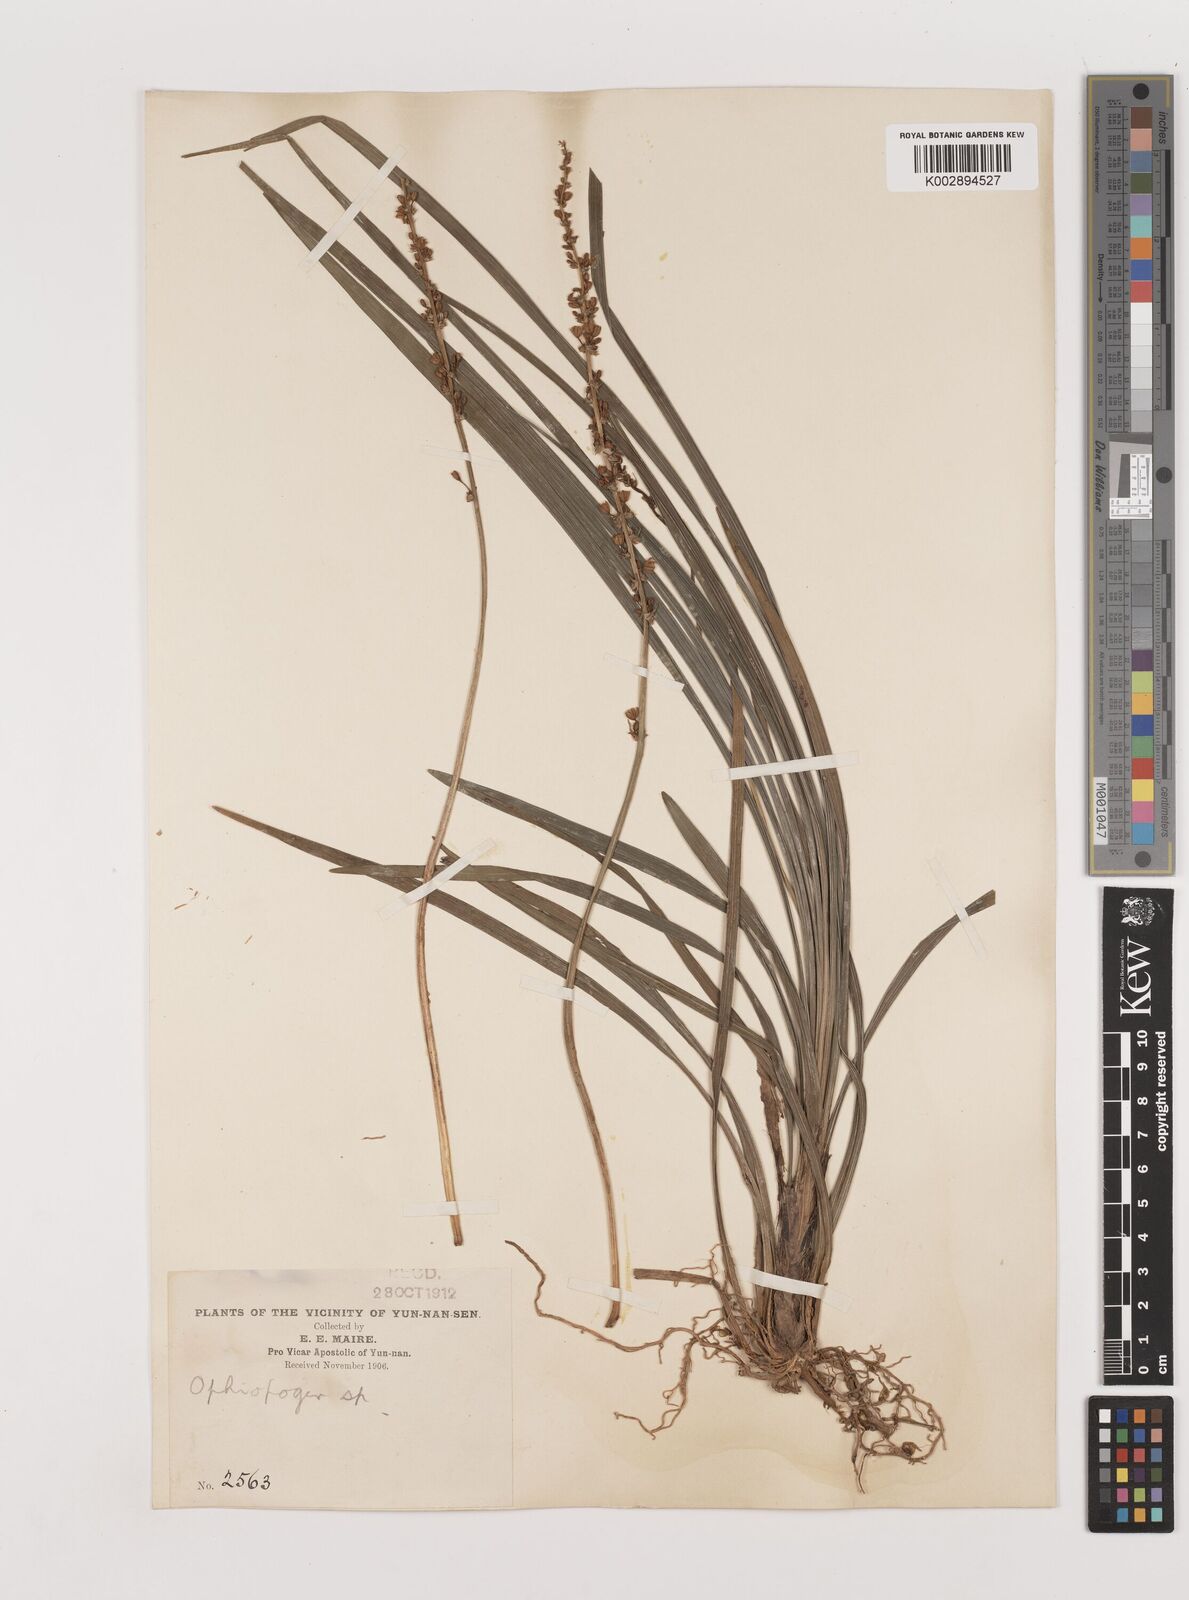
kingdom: Plantae
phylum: Tracheophyta
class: Liliopsida
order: Asparagales
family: Asparagaceae
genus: Liriope
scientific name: Liriope spicata
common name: Creeping liriope
